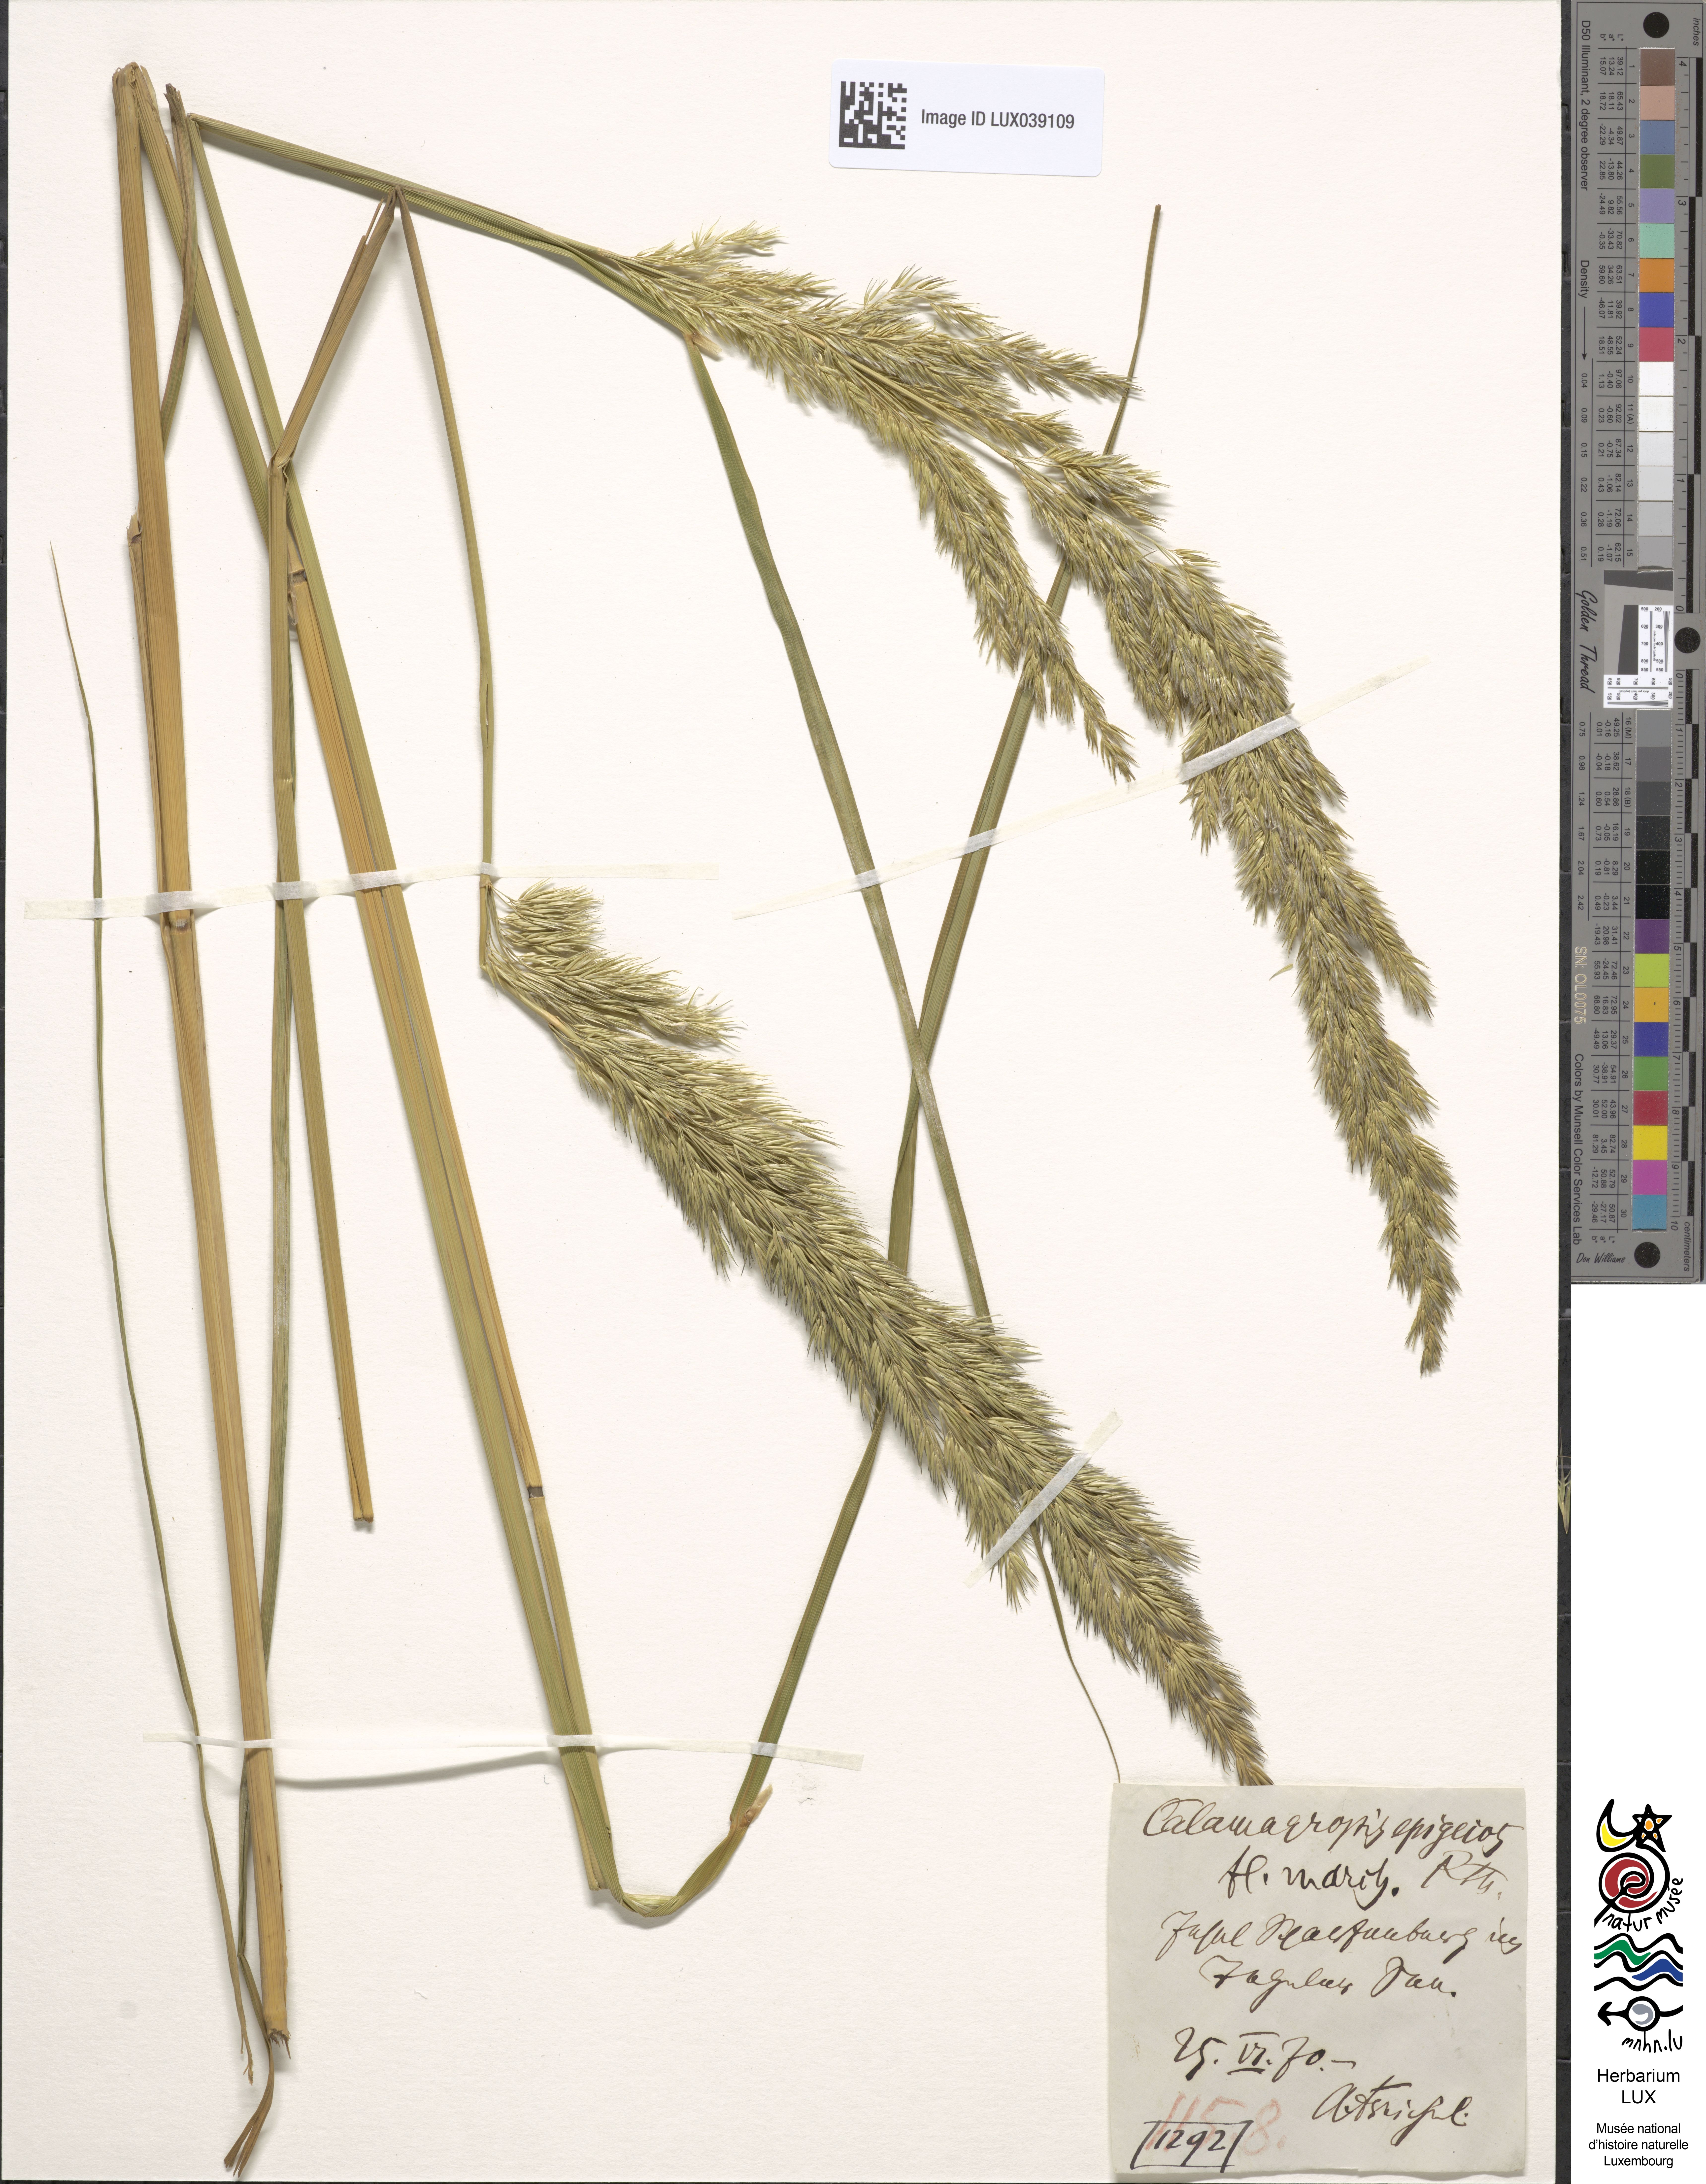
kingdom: Plantae
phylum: Tracheophyta
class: Liliopsida
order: Poales
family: Poaceae
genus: Calamagrostis
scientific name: Calamagrostis epigejos
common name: Wood small-reed
